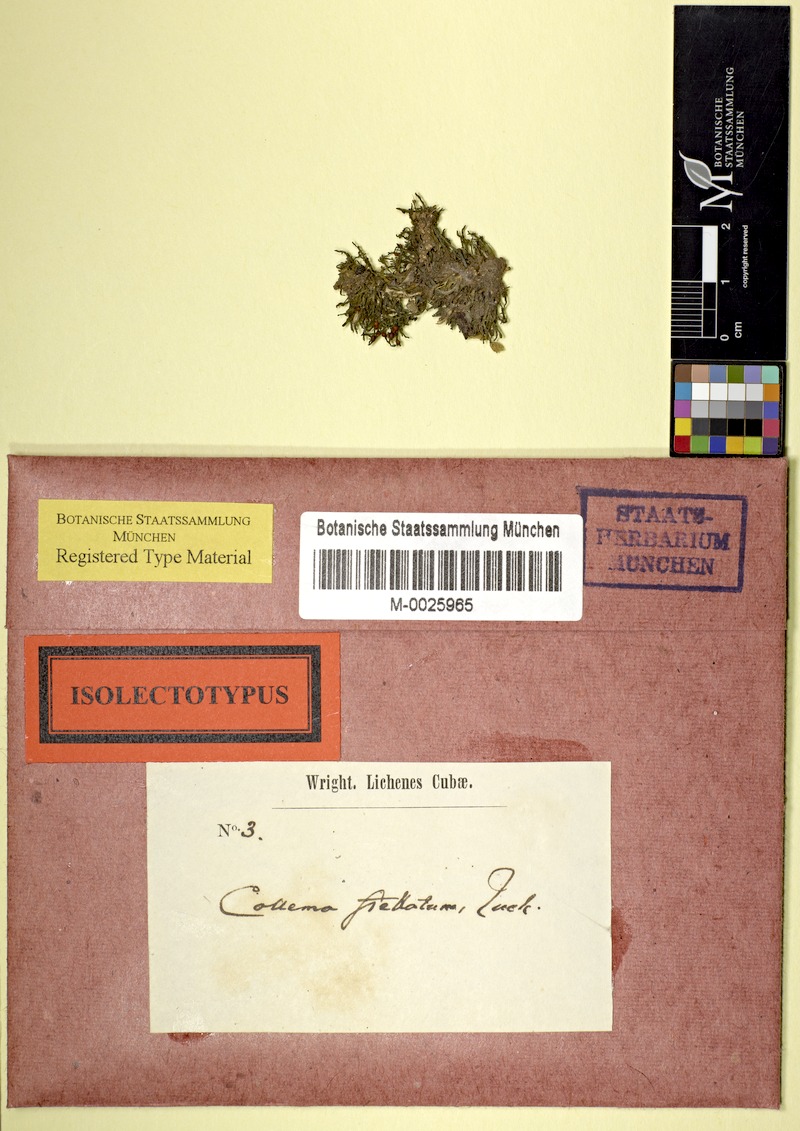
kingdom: Fungi
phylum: Ascomycota
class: Lecanoromycetes
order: Peltigerales
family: Collemataceae
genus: Collema
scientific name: Collema texanum
